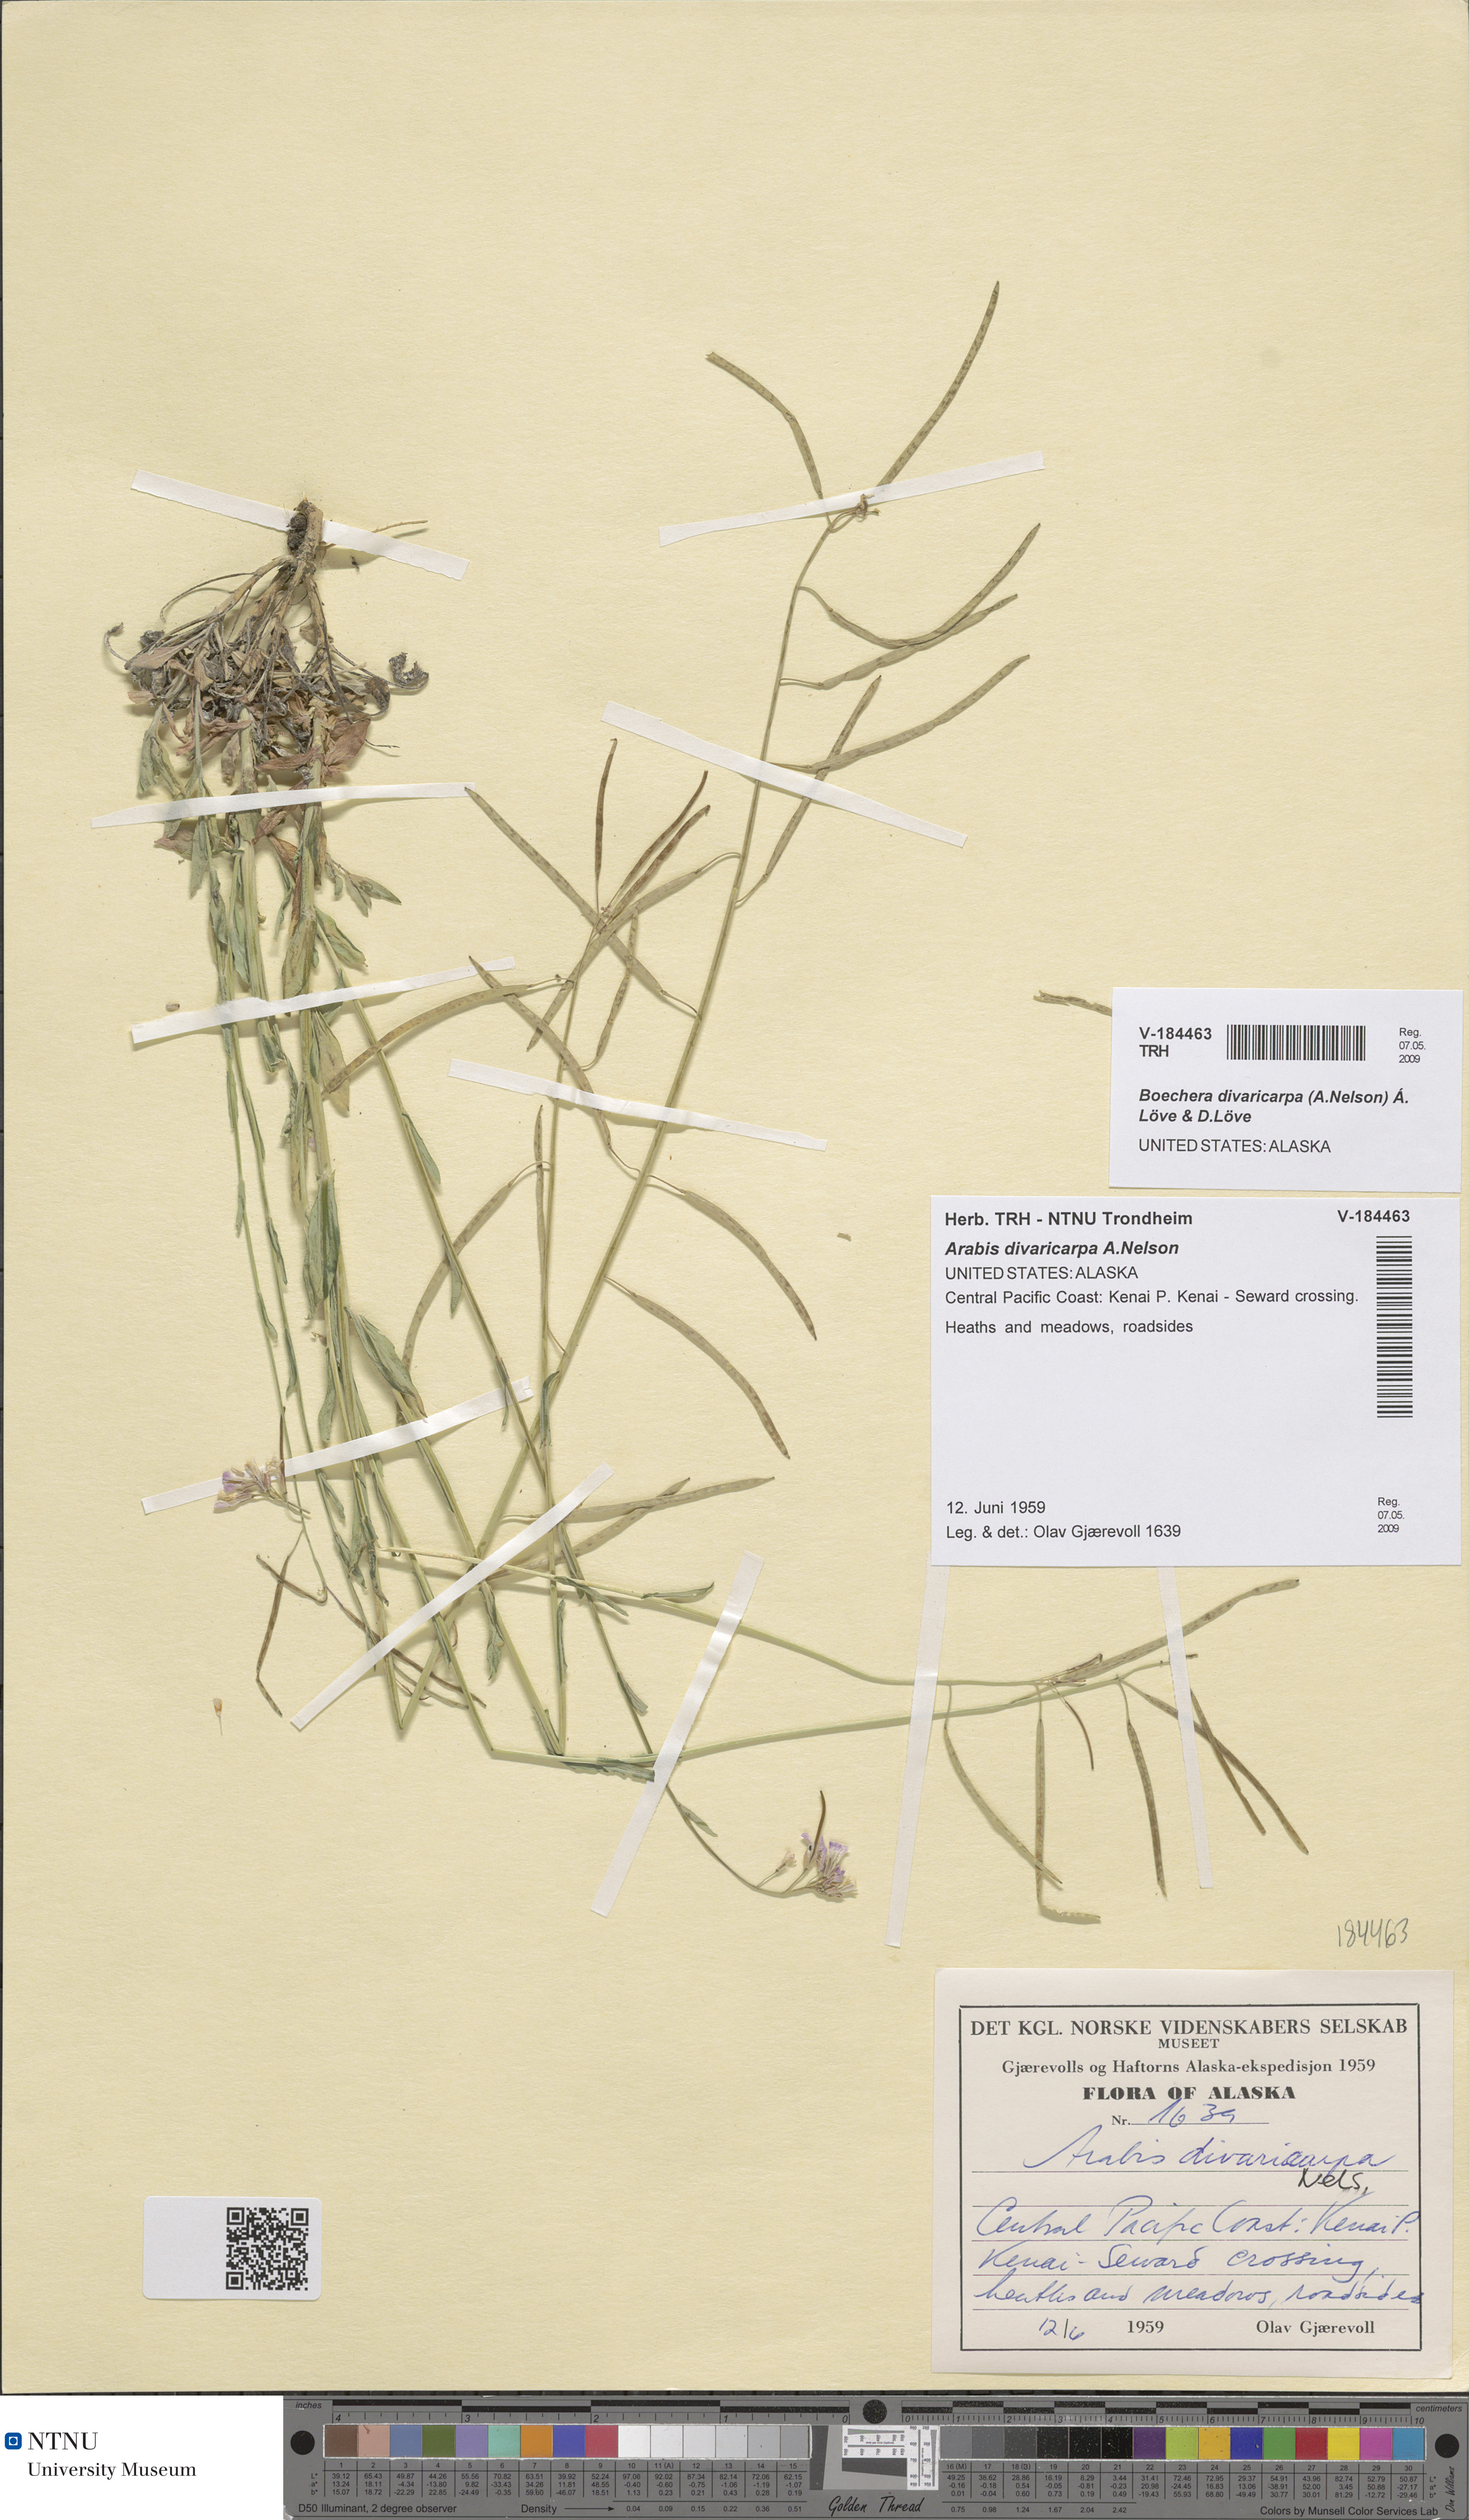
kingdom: Plantae
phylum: Tracheophyta
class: Magnoliopsida
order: Brassicales
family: Brassicaceae
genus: Boechera
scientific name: Boechera divaricarpa
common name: Divaricate rockcress
